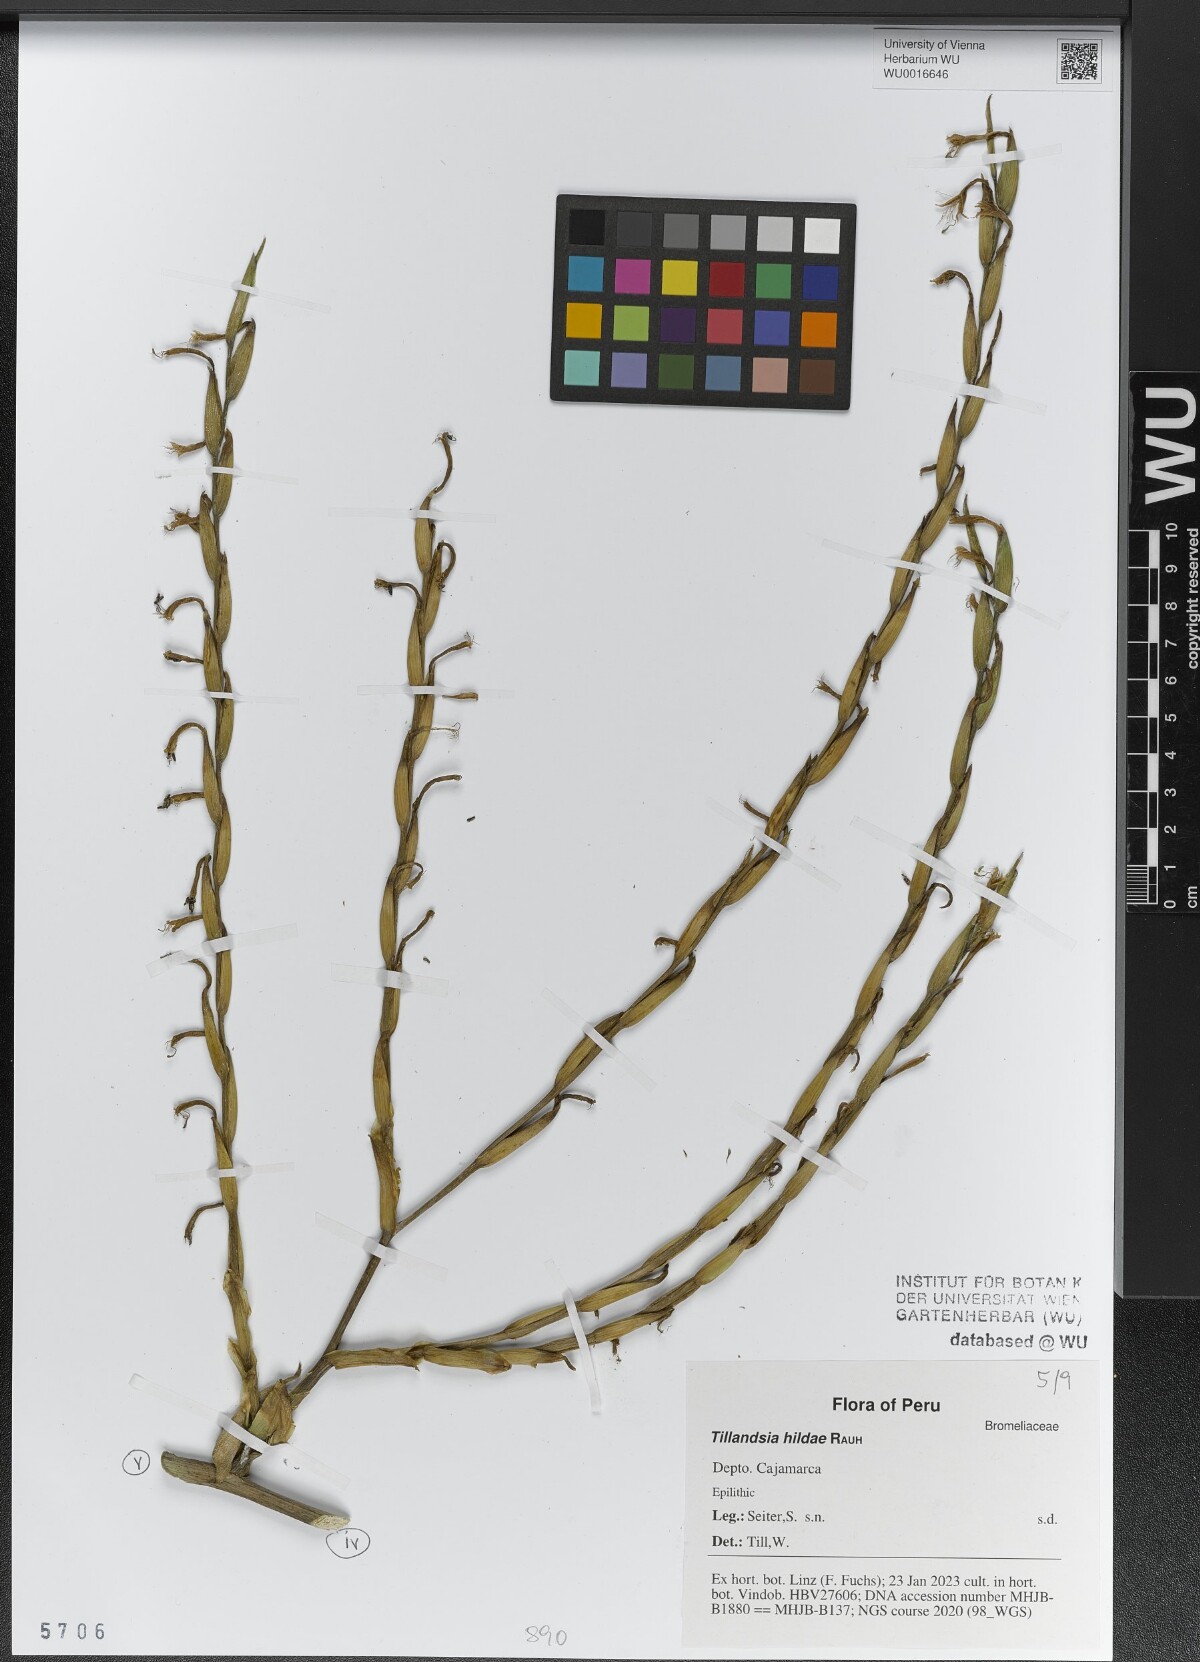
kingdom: Plantae
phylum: Tracheophyta
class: Liliopsida
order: Poales
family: Bromeliaceae
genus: Tillandsia
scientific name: Tillandsia hildae
